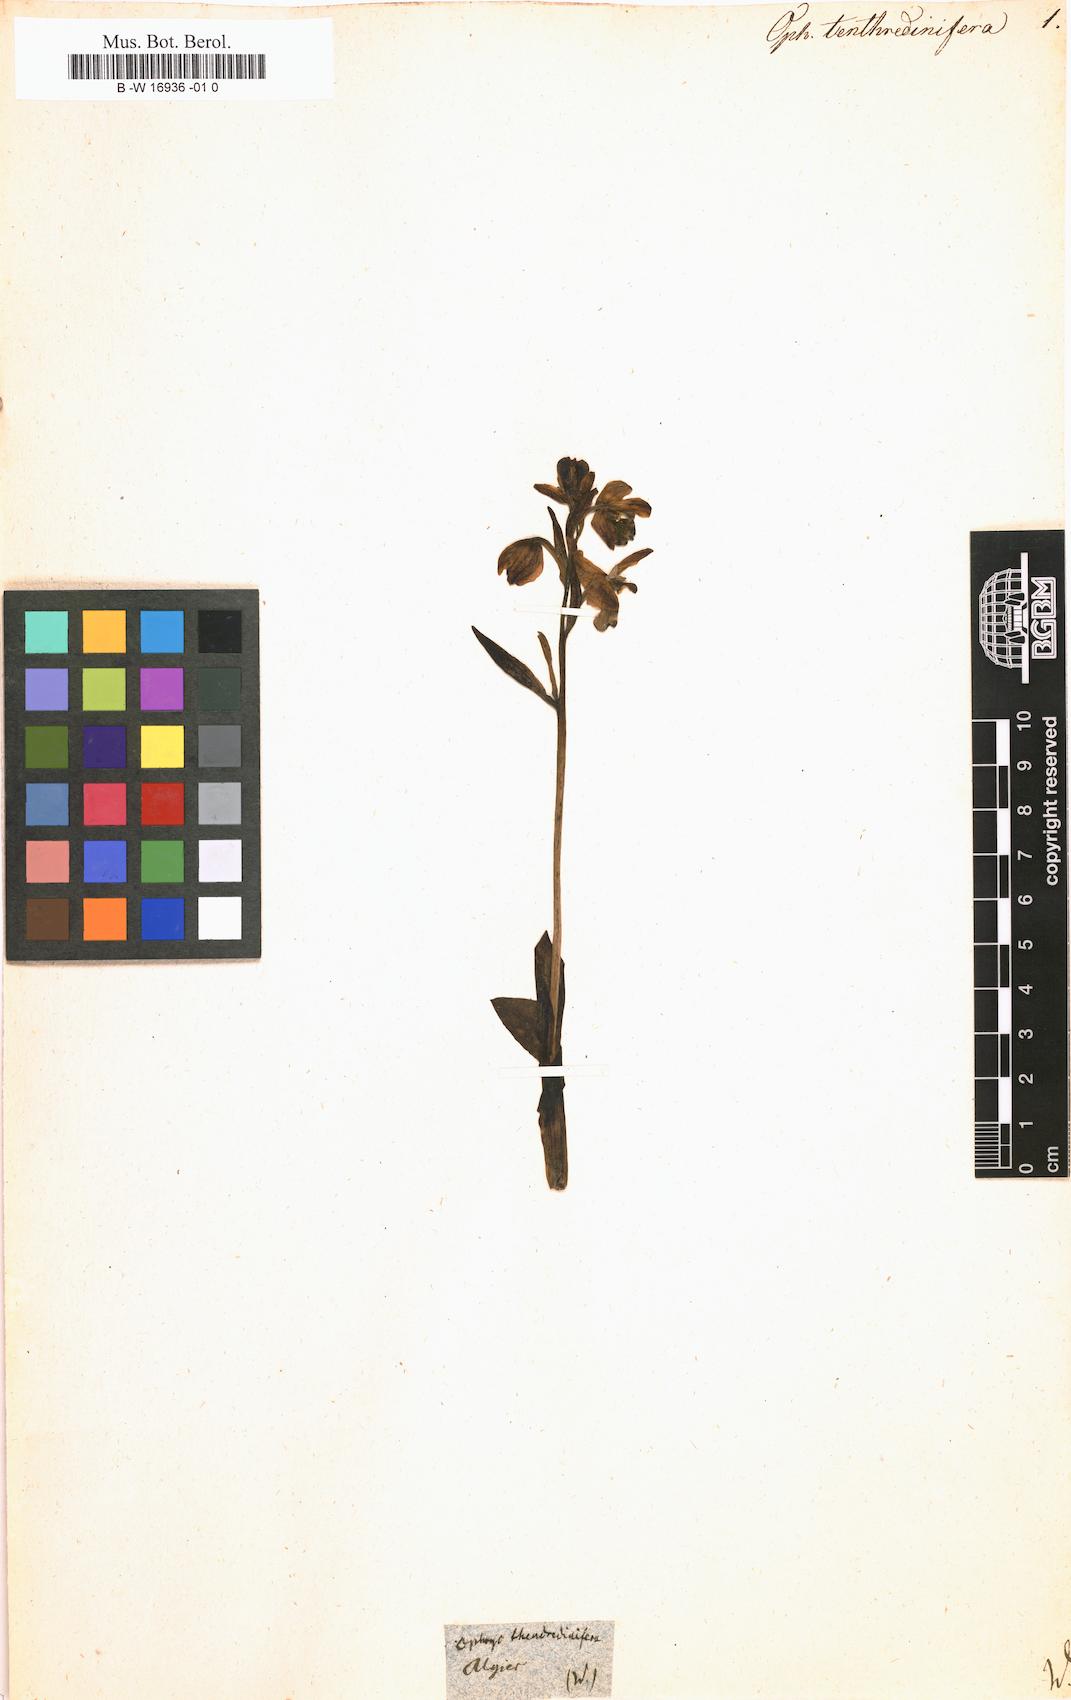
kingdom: Plantae
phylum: Tracheophyta
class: Liliopsida
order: Asparagales
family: Orchidaceae
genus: Ophrys
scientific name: Ophrys tenthredinifera
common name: Sawfly orchid
